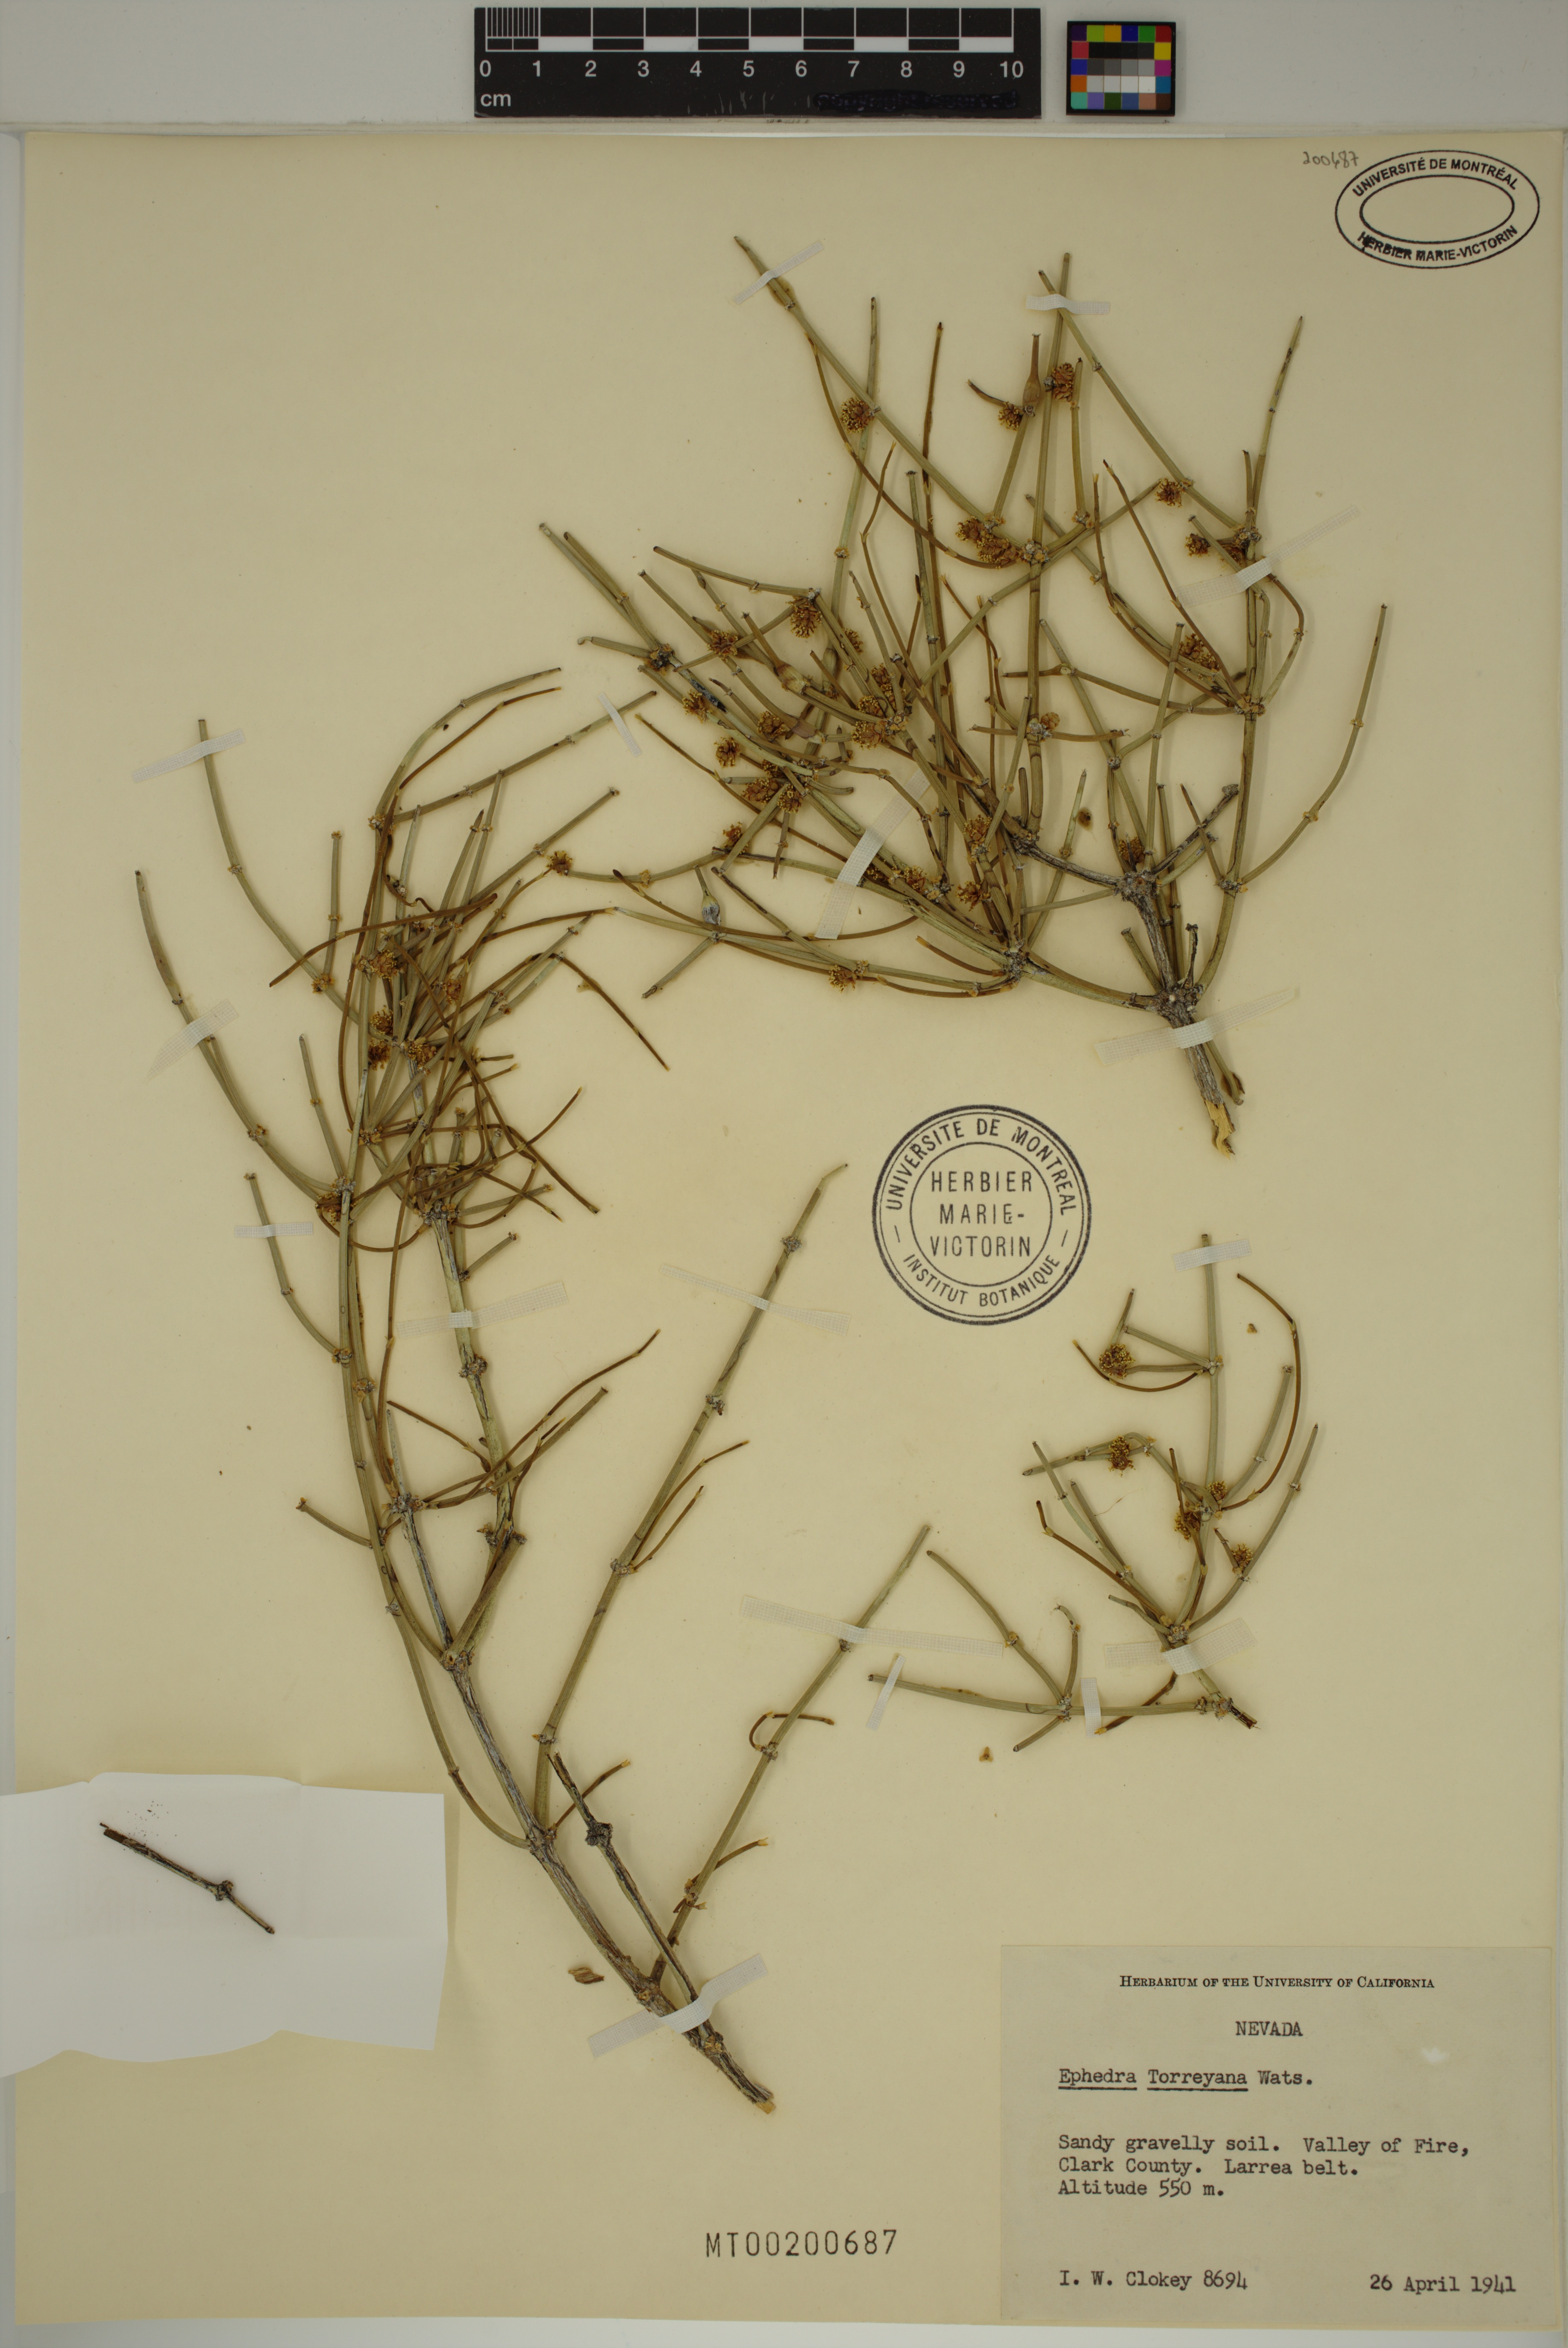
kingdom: Plantae
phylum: Tracheophyta
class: Gnetopsida
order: Ephedrales
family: Ephedraceae
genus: Ephedra
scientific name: Ephedra torreyana
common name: Torrey ephedra
